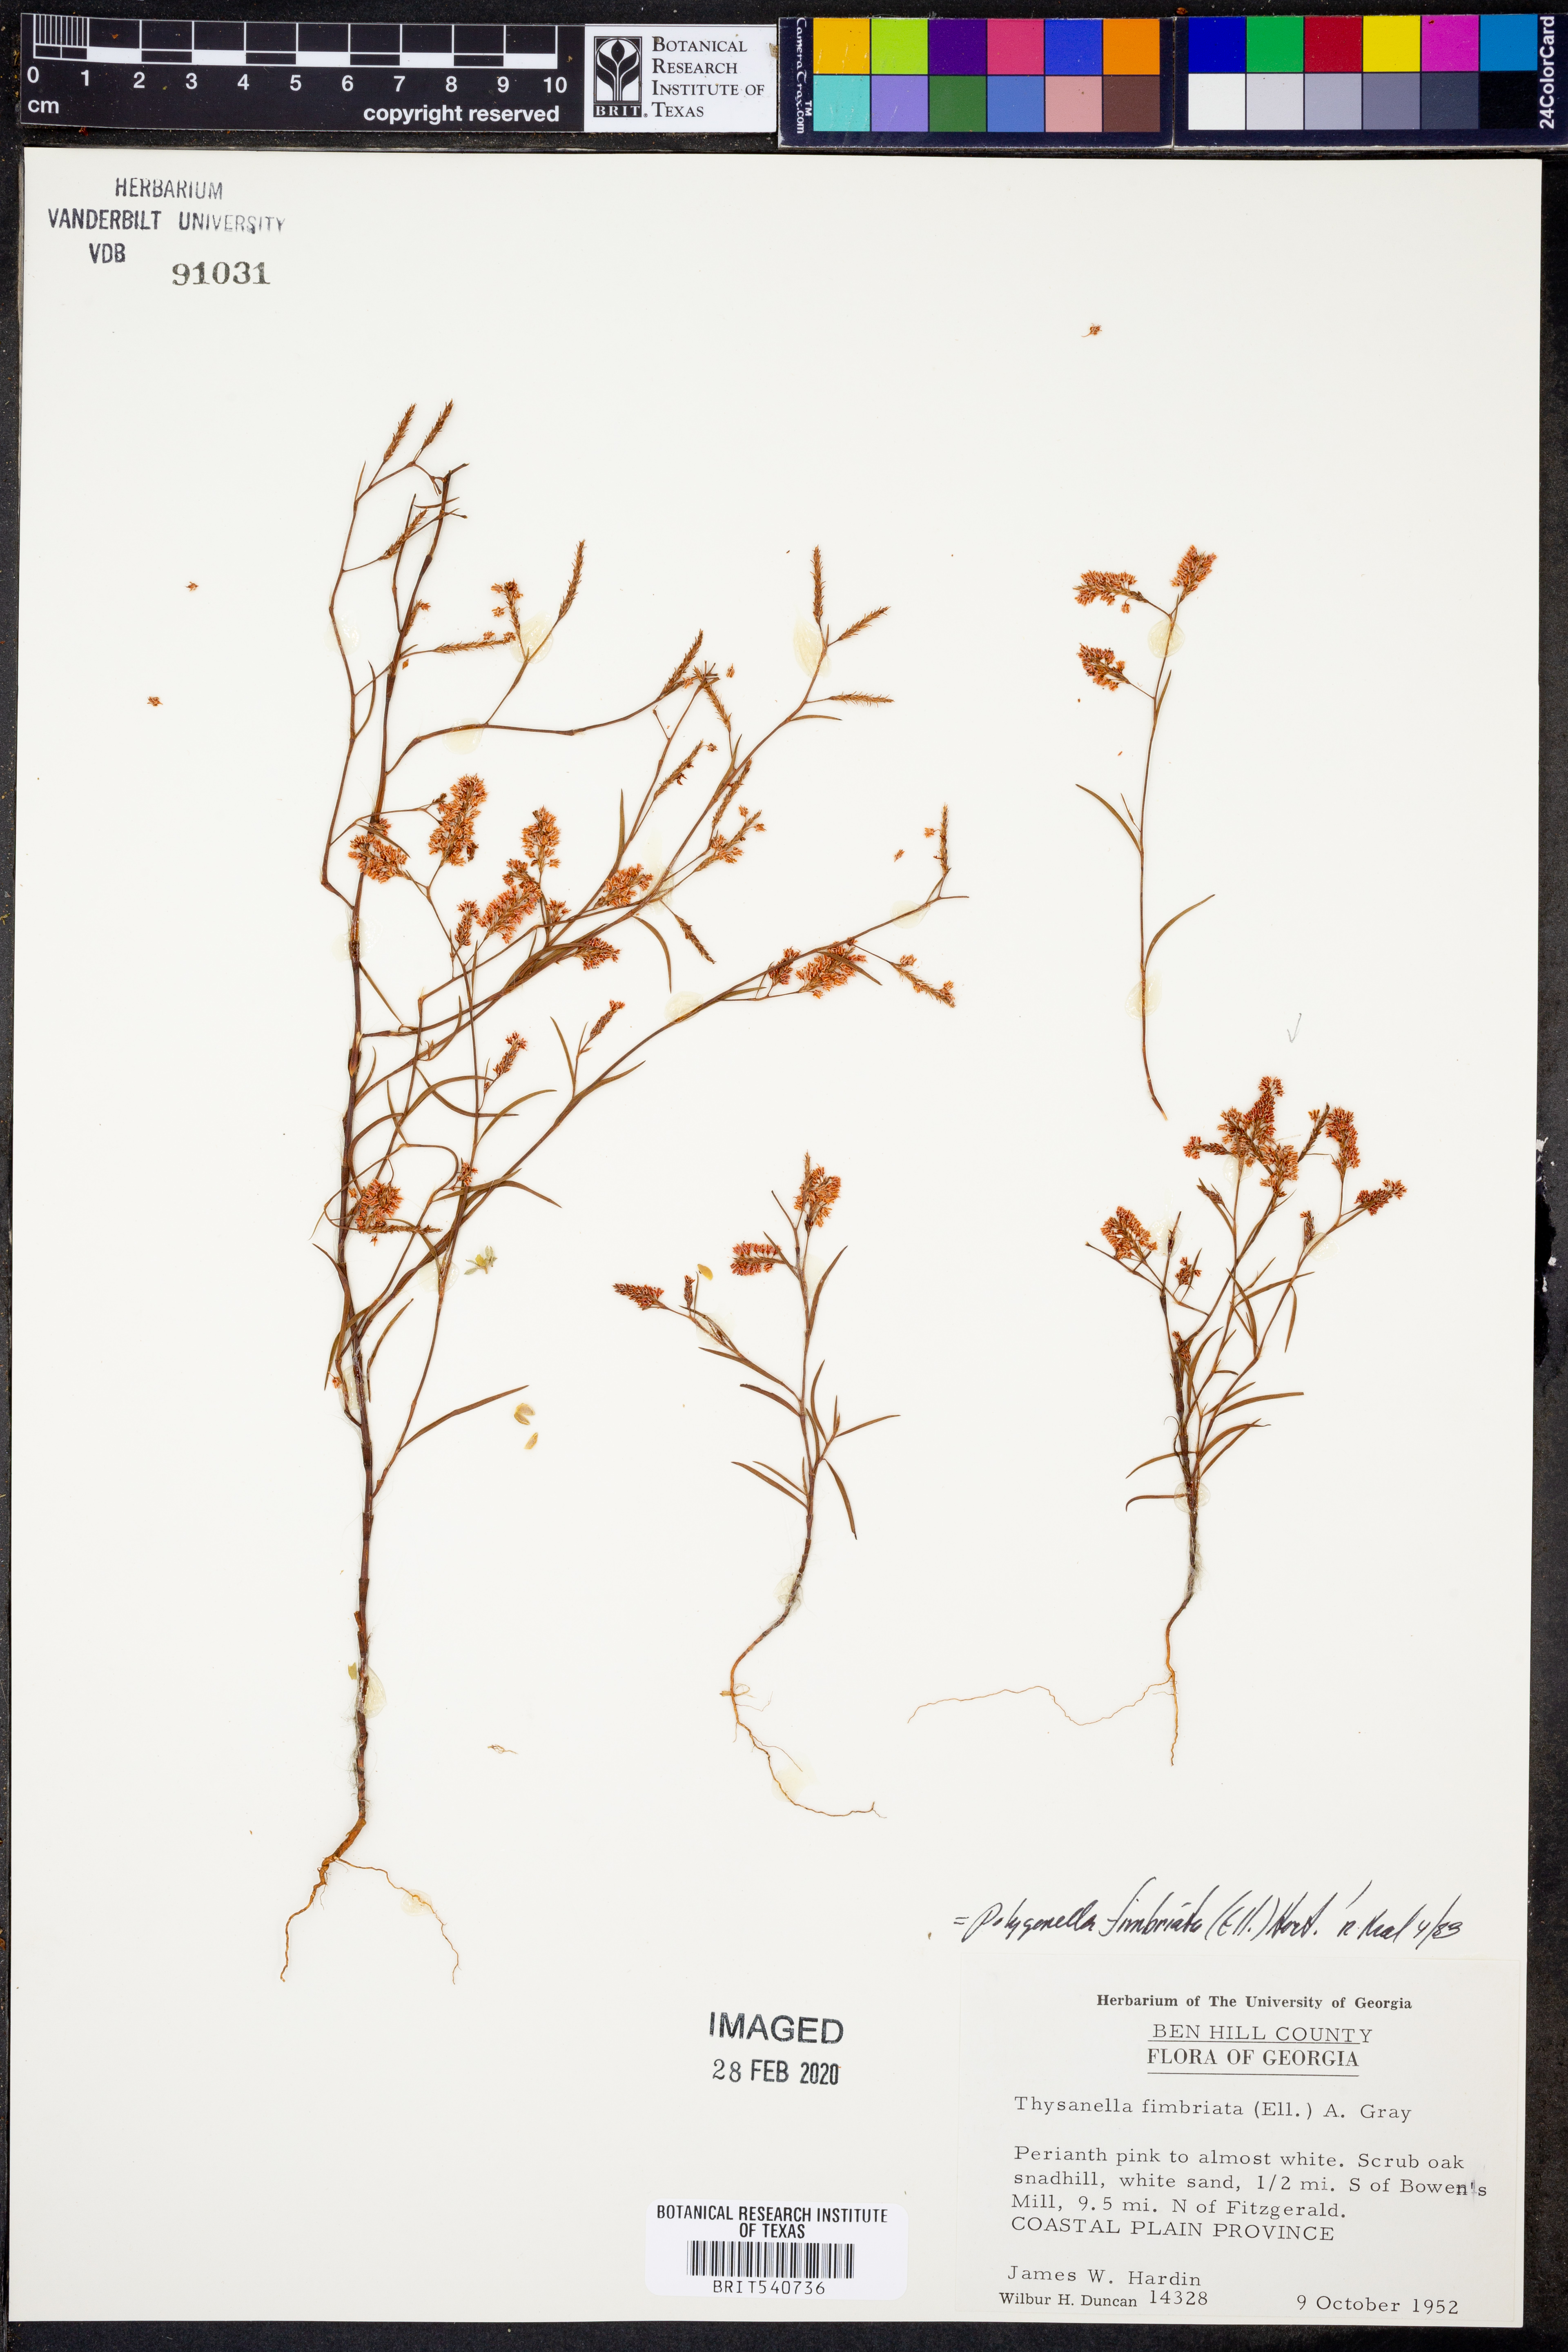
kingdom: Plantae
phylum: Tracheophyta
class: Magnoliopsida
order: Caryophyllales
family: Polygonaceae
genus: Polygonella
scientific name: Polygonella fimbriata
